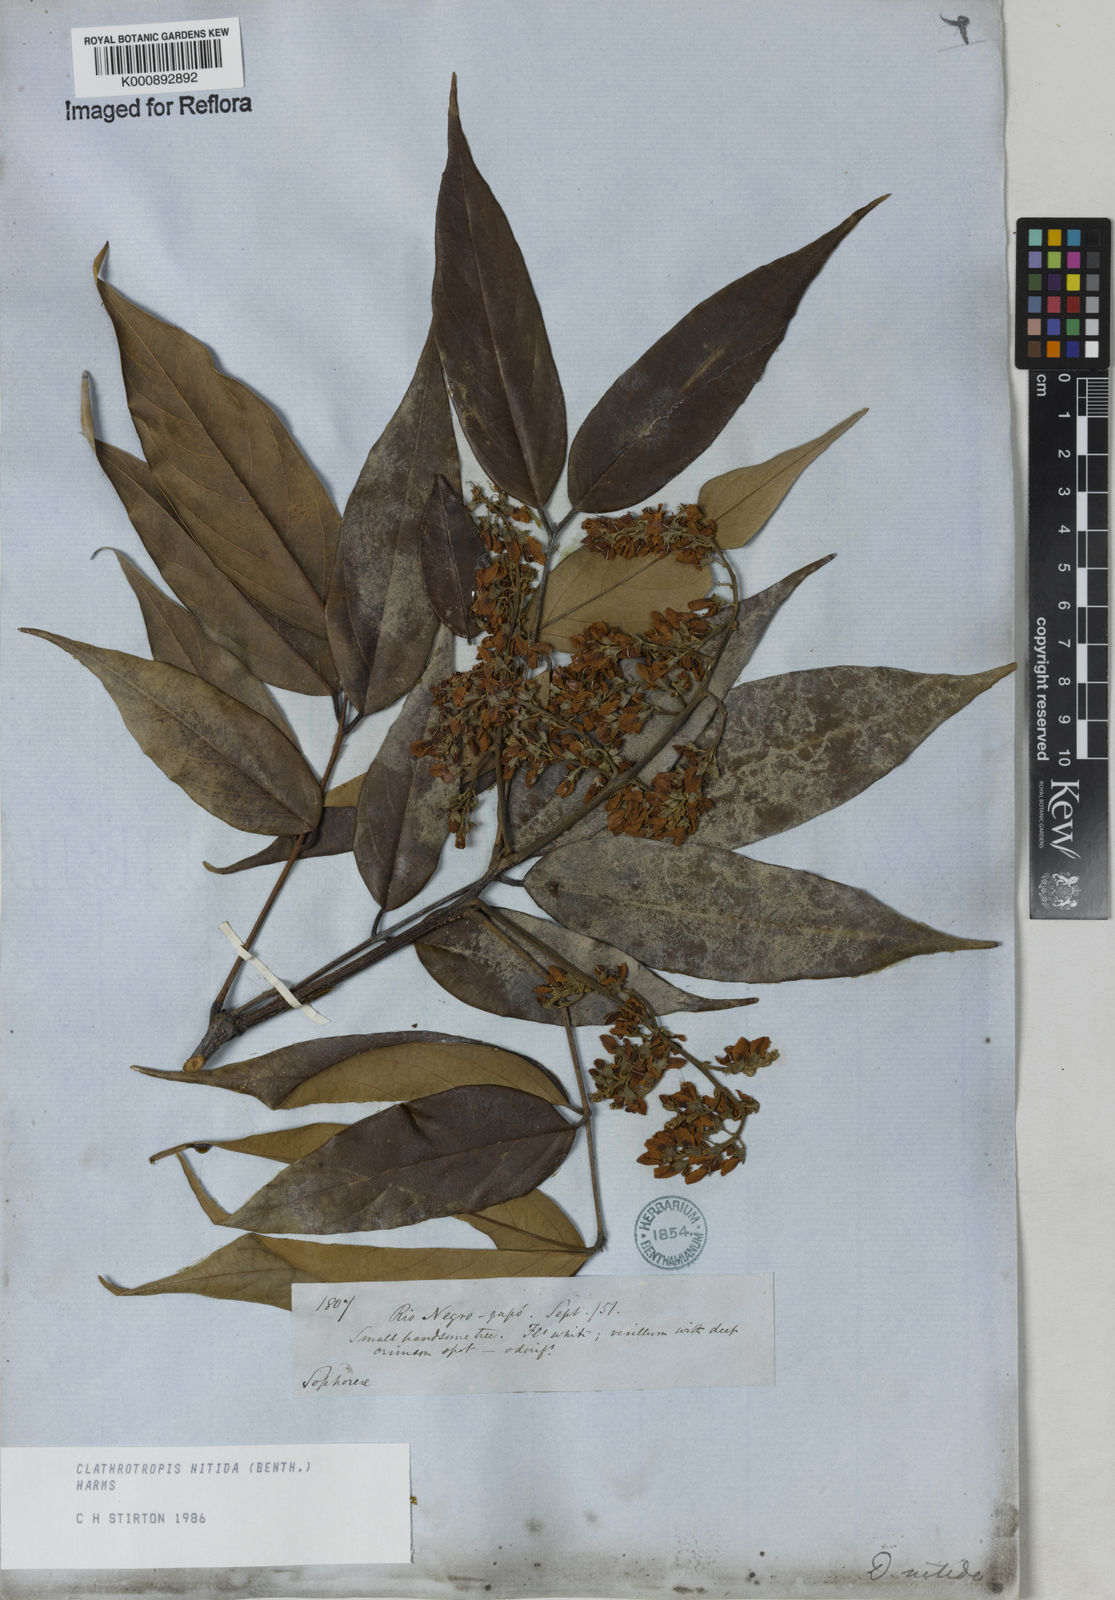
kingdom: Plantae
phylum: Tracheophyta
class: Magnoliopsida
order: Fabales
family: Fabaceae
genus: Clathrotropis
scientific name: Clathrotropis nitida
